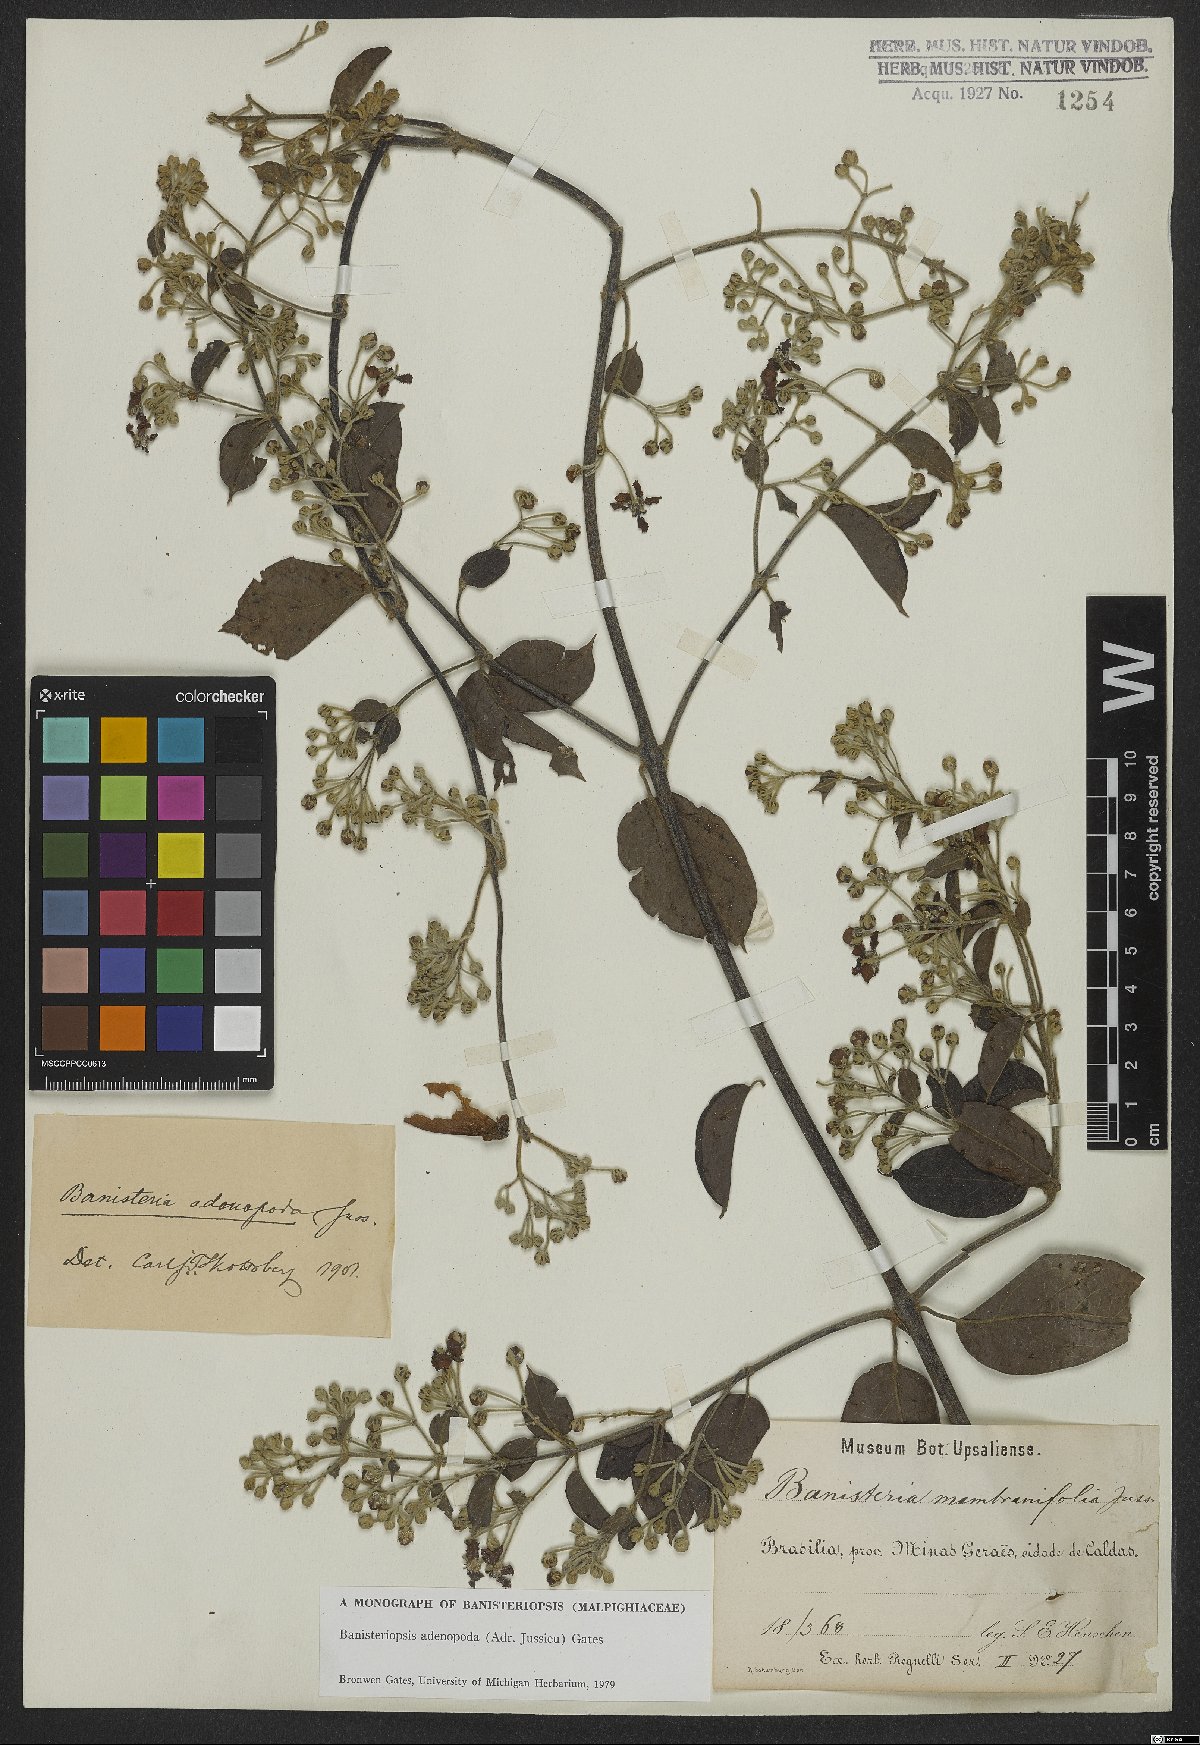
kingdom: Plantae
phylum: Tracheophyta
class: Magnoliopsida
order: Malpighiales
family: Malpighiaceae
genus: Banisteriopsis
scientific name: Banisteriopsis adenopoda
